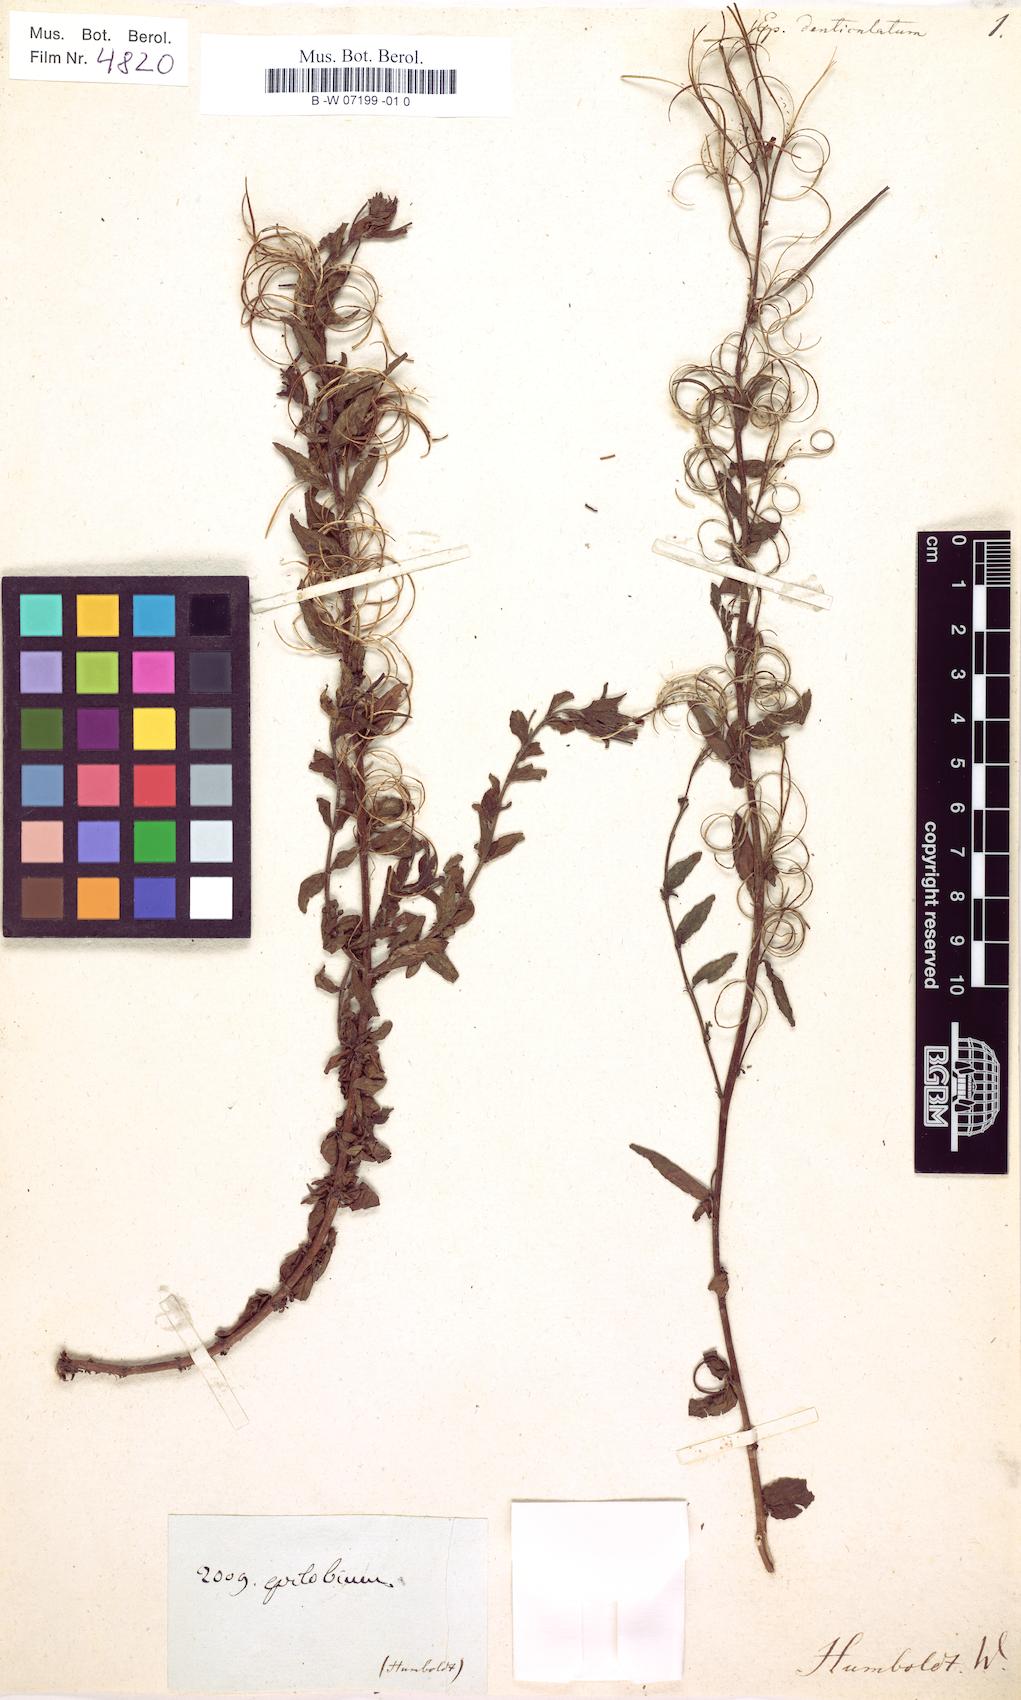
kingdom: Plantae
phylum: Tracheophyta
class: Magnoliopsida
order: Myrtales
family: Onagraceae
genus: Epilobium
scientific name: Epilobium denticulatum
